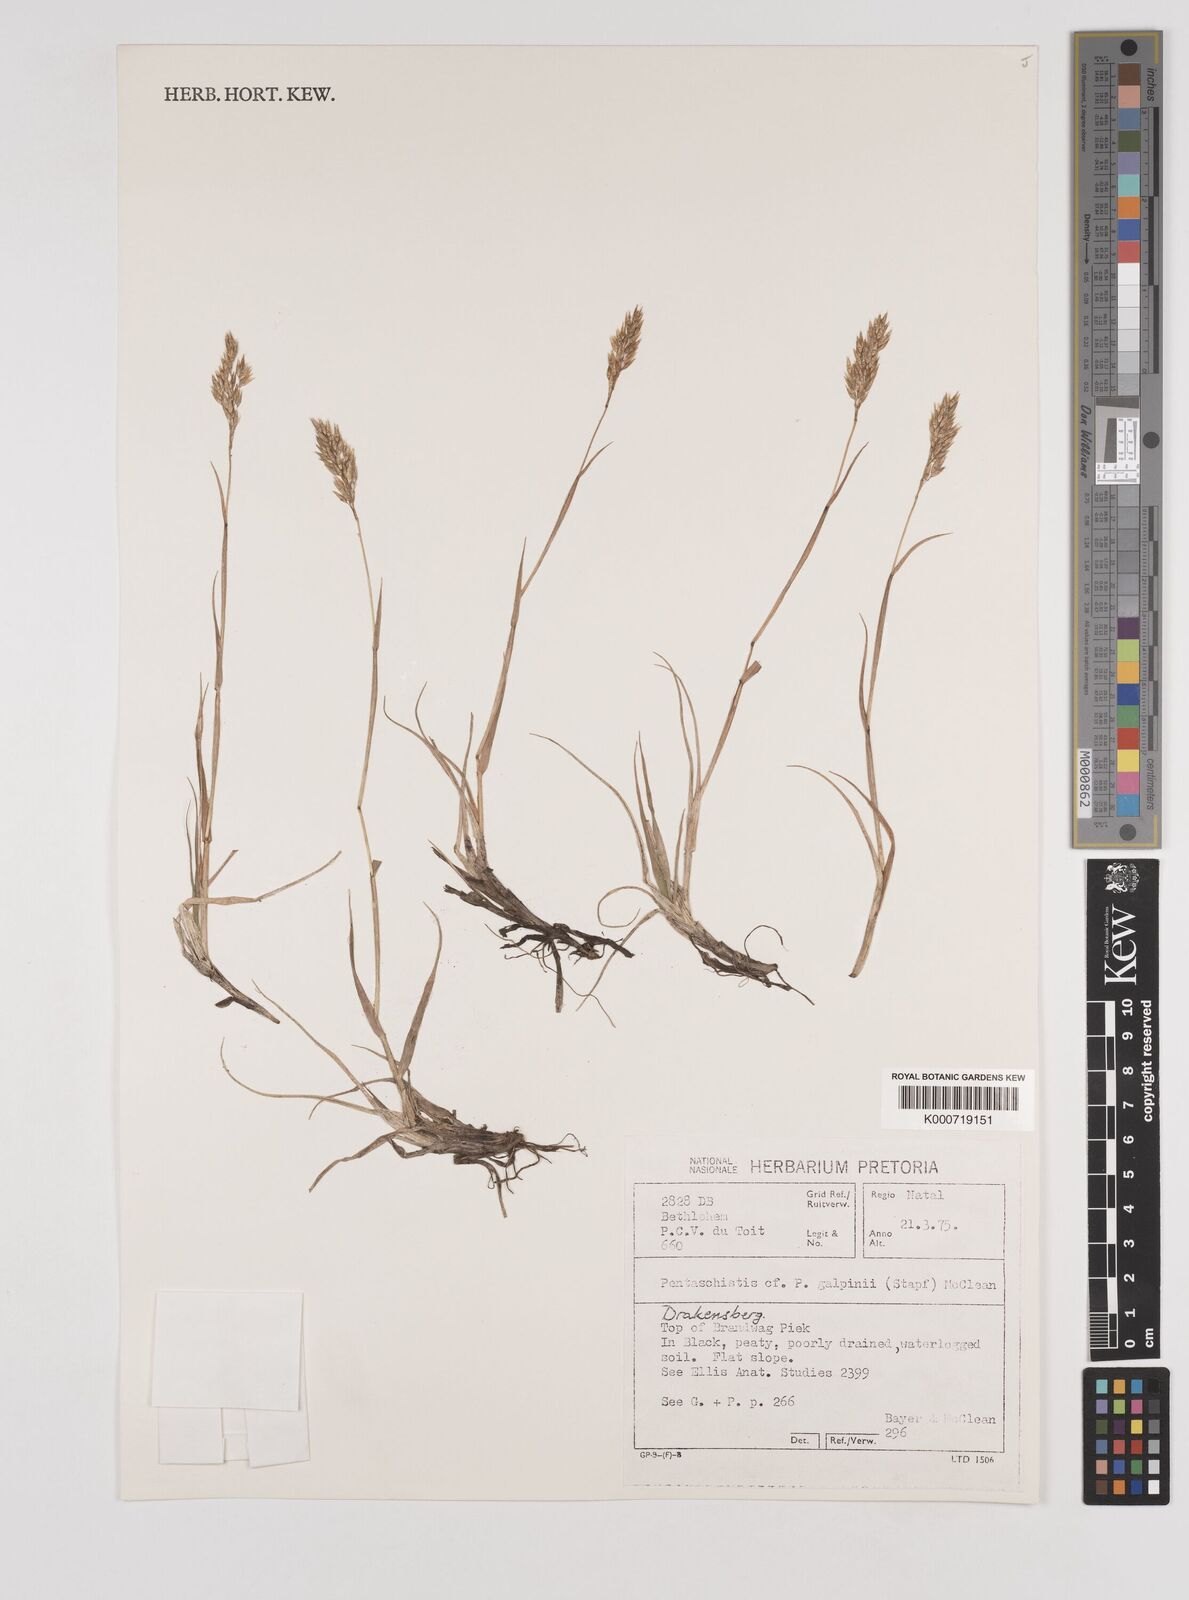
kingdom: Plantae
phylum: Tracheophyta
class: Liliopsida
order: Poales
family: Poaceae
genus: Pentameris
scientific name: Pentameris galpinii
